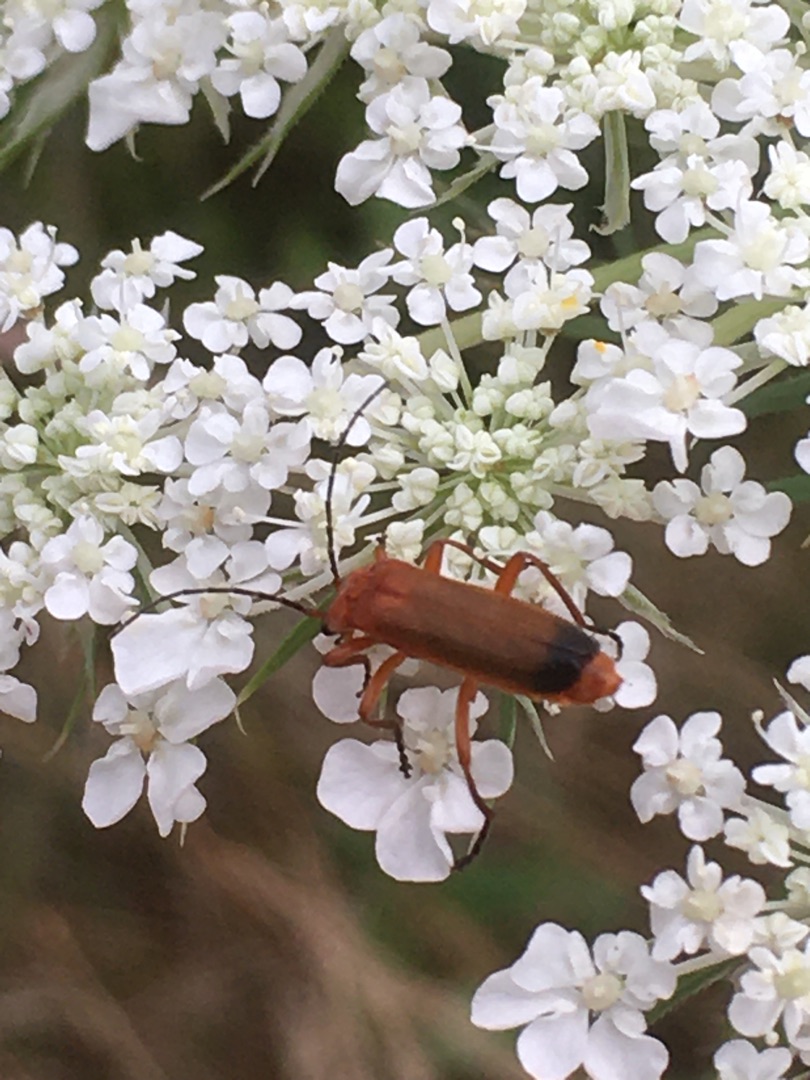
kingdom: Animalia
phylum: Arthropoda
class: Insecta
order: Coleoptera
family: Cantharidae
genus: Rhagonycha
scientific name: Rhagonycha fulva
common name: Præstebille
